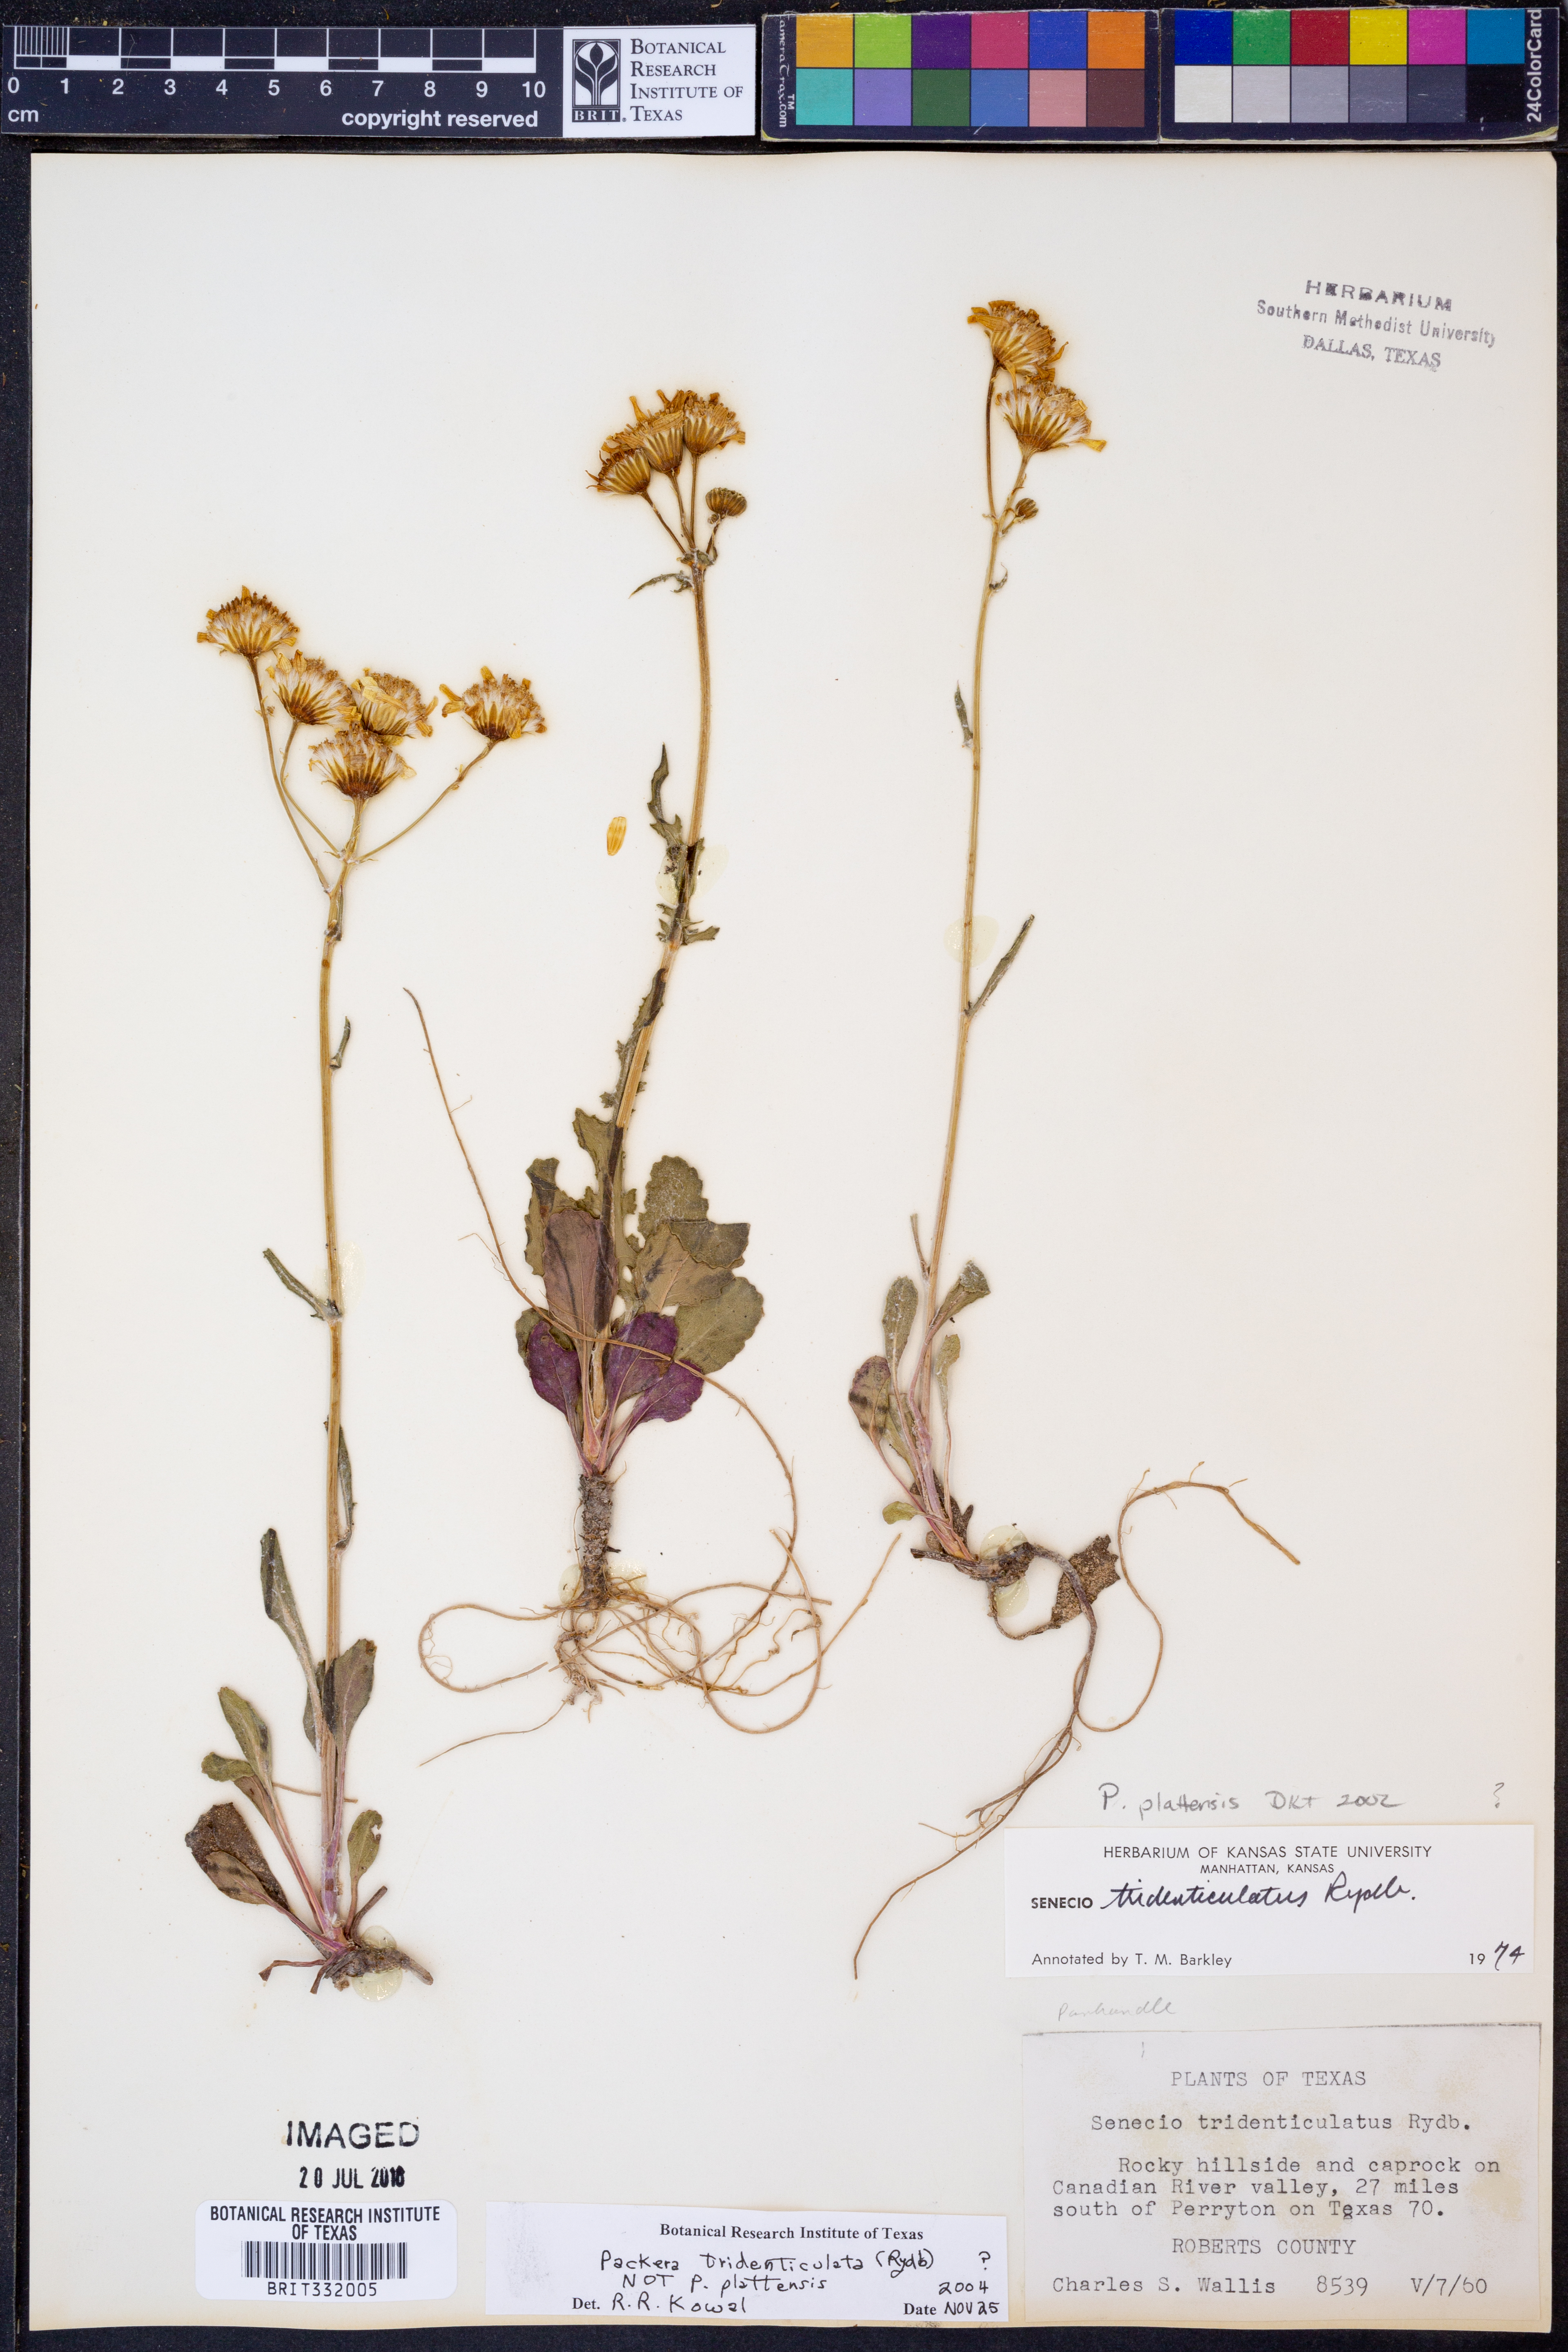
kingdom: Plantae
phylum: Tracheophyta
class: Magnoliopsida
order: Asterales
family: Asteraceae
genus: Packera
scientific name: Packera thurberi
